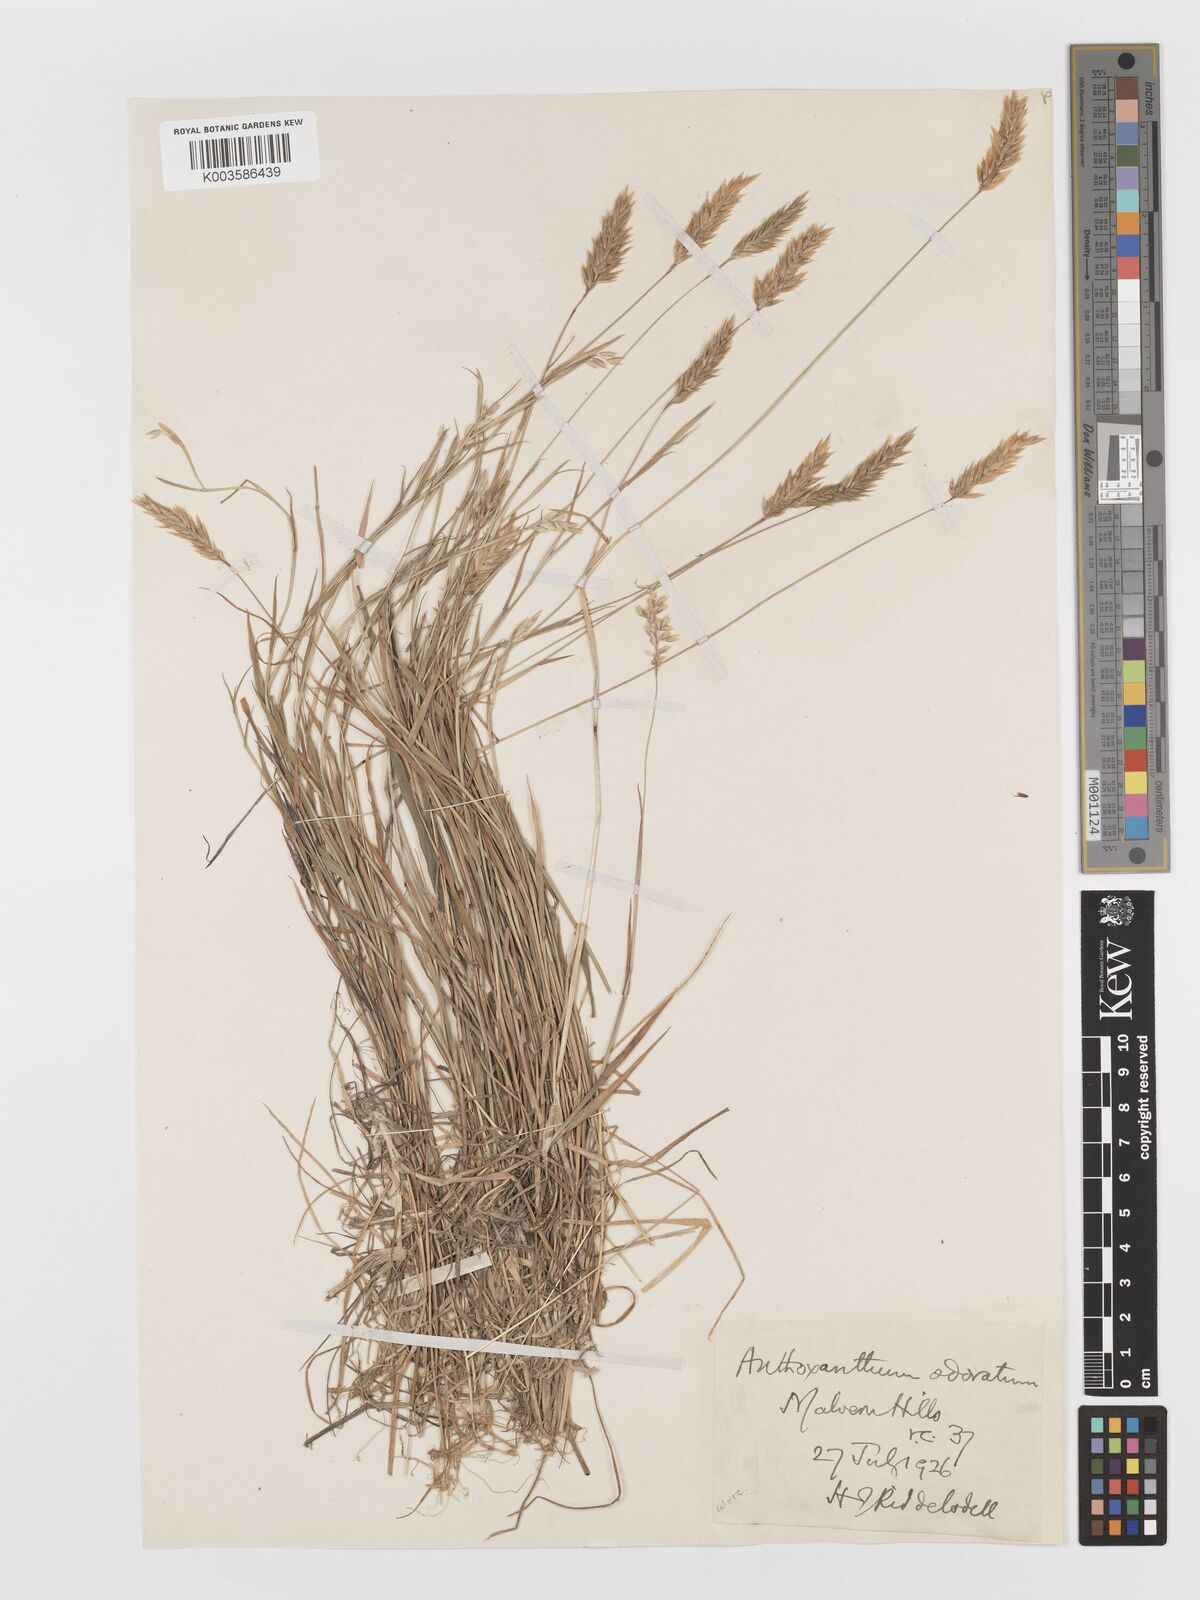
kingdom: Plantae
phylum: Tracheophyta
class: Liliopsida
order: Poales
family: Poaceae
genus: Anthoxanthum
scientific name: Anthoxanthum odoratum
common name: Sweet vernalgrass
